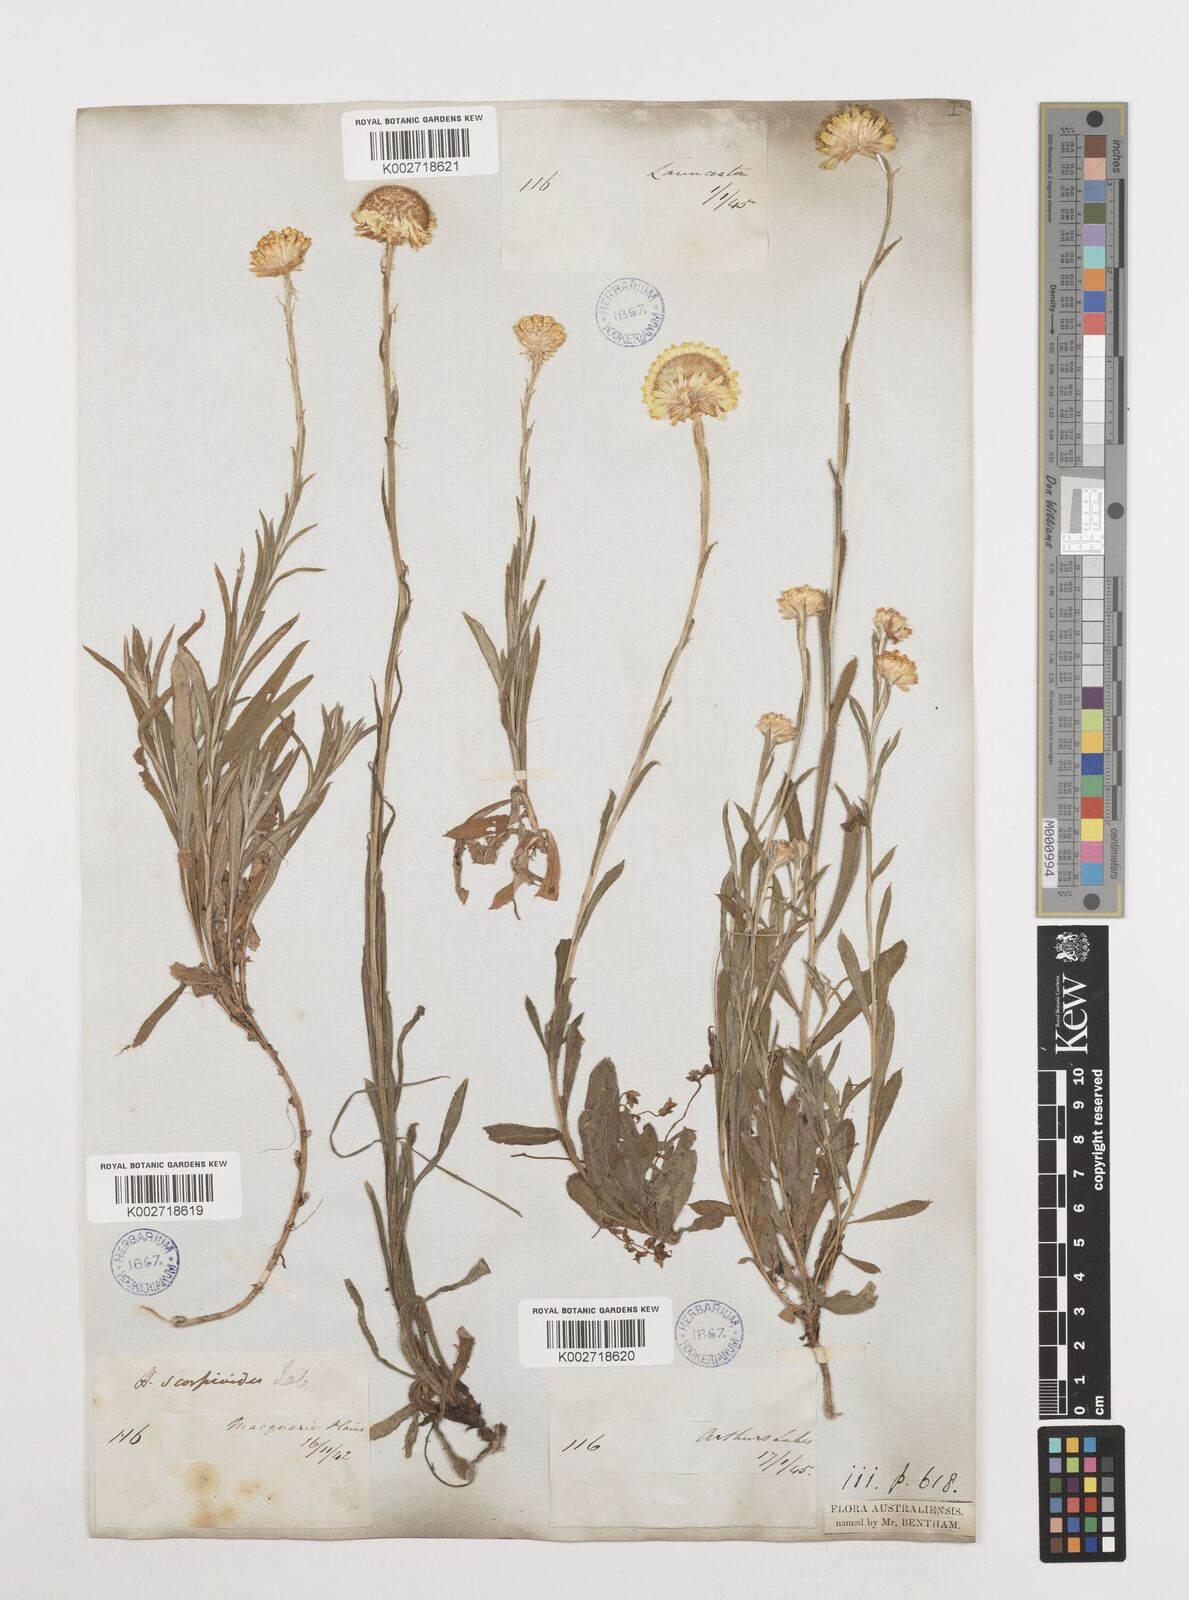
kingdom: Plantae
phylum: Tracheophyta
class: Magnoliopsida
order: Asterales
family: Asteraceae
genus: Coronidium
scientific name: Coronidium scorpioides
